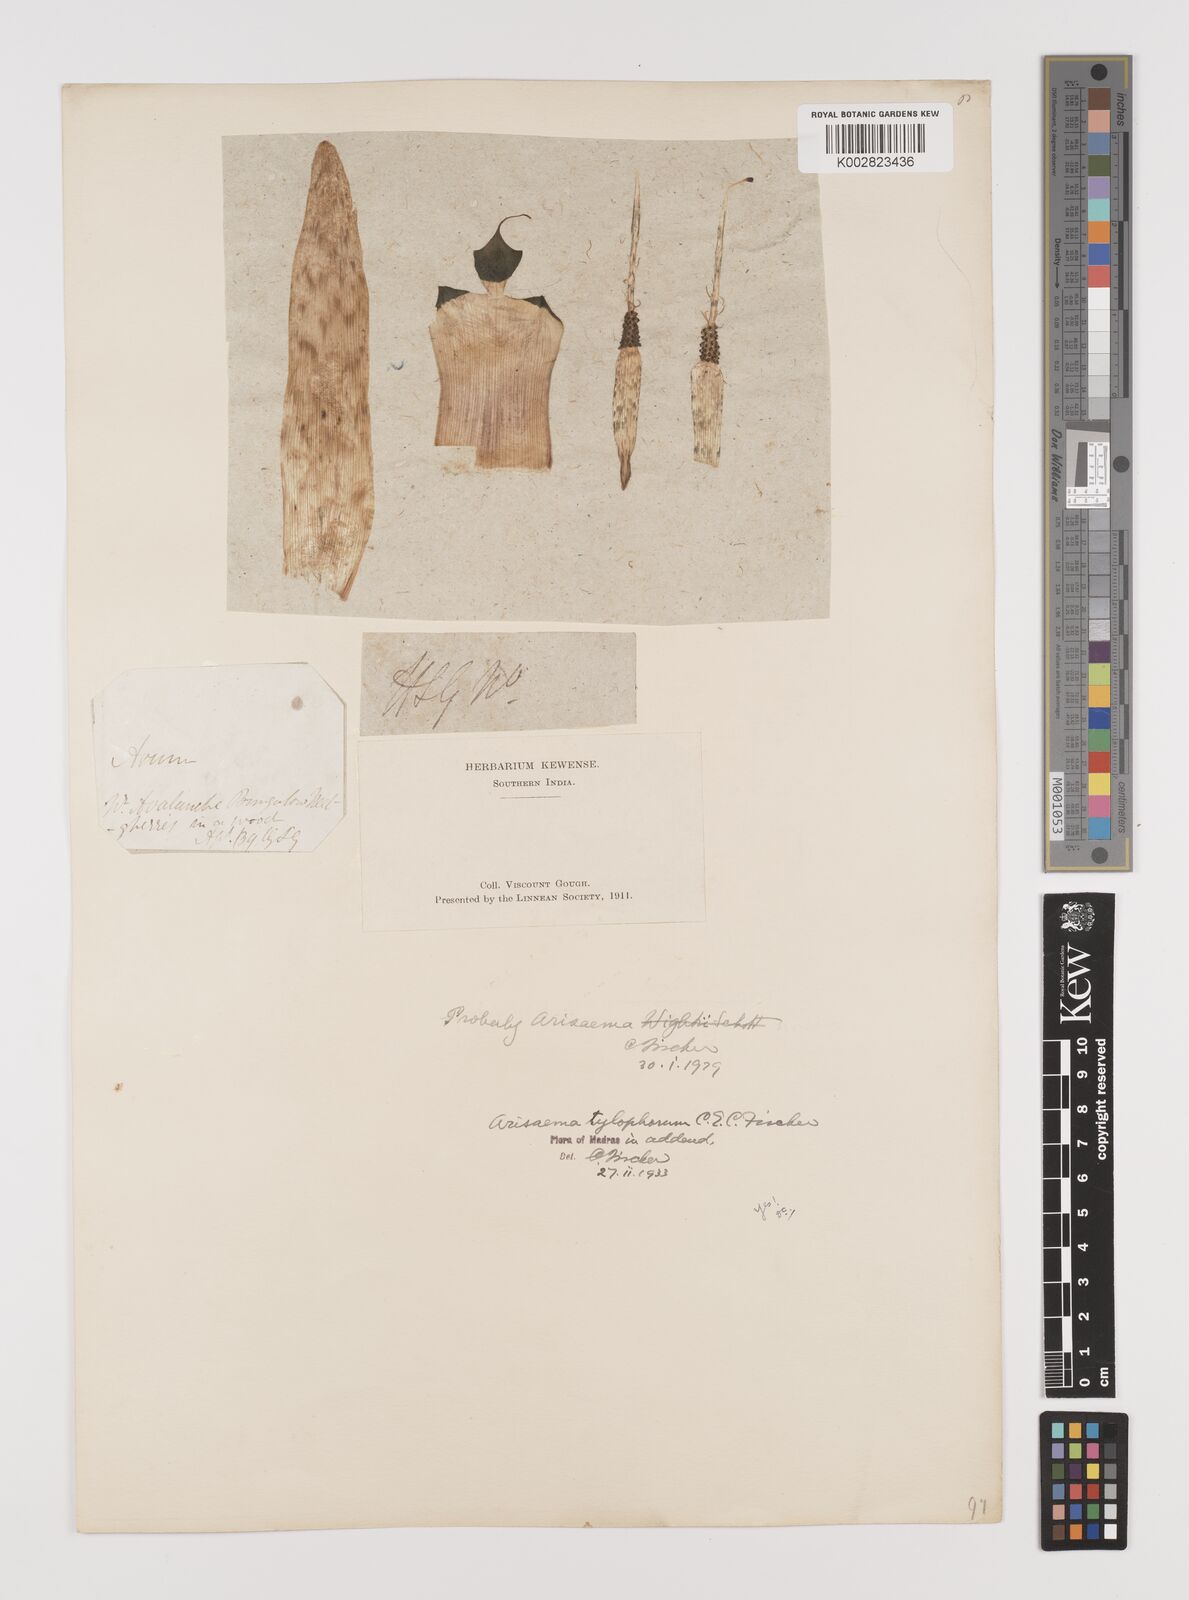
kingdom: Plantae
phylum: Tracheophyta
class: Liliopsida
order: Alismatales
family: Araceae
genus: Arisaema
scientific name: Arisaema barnesii
